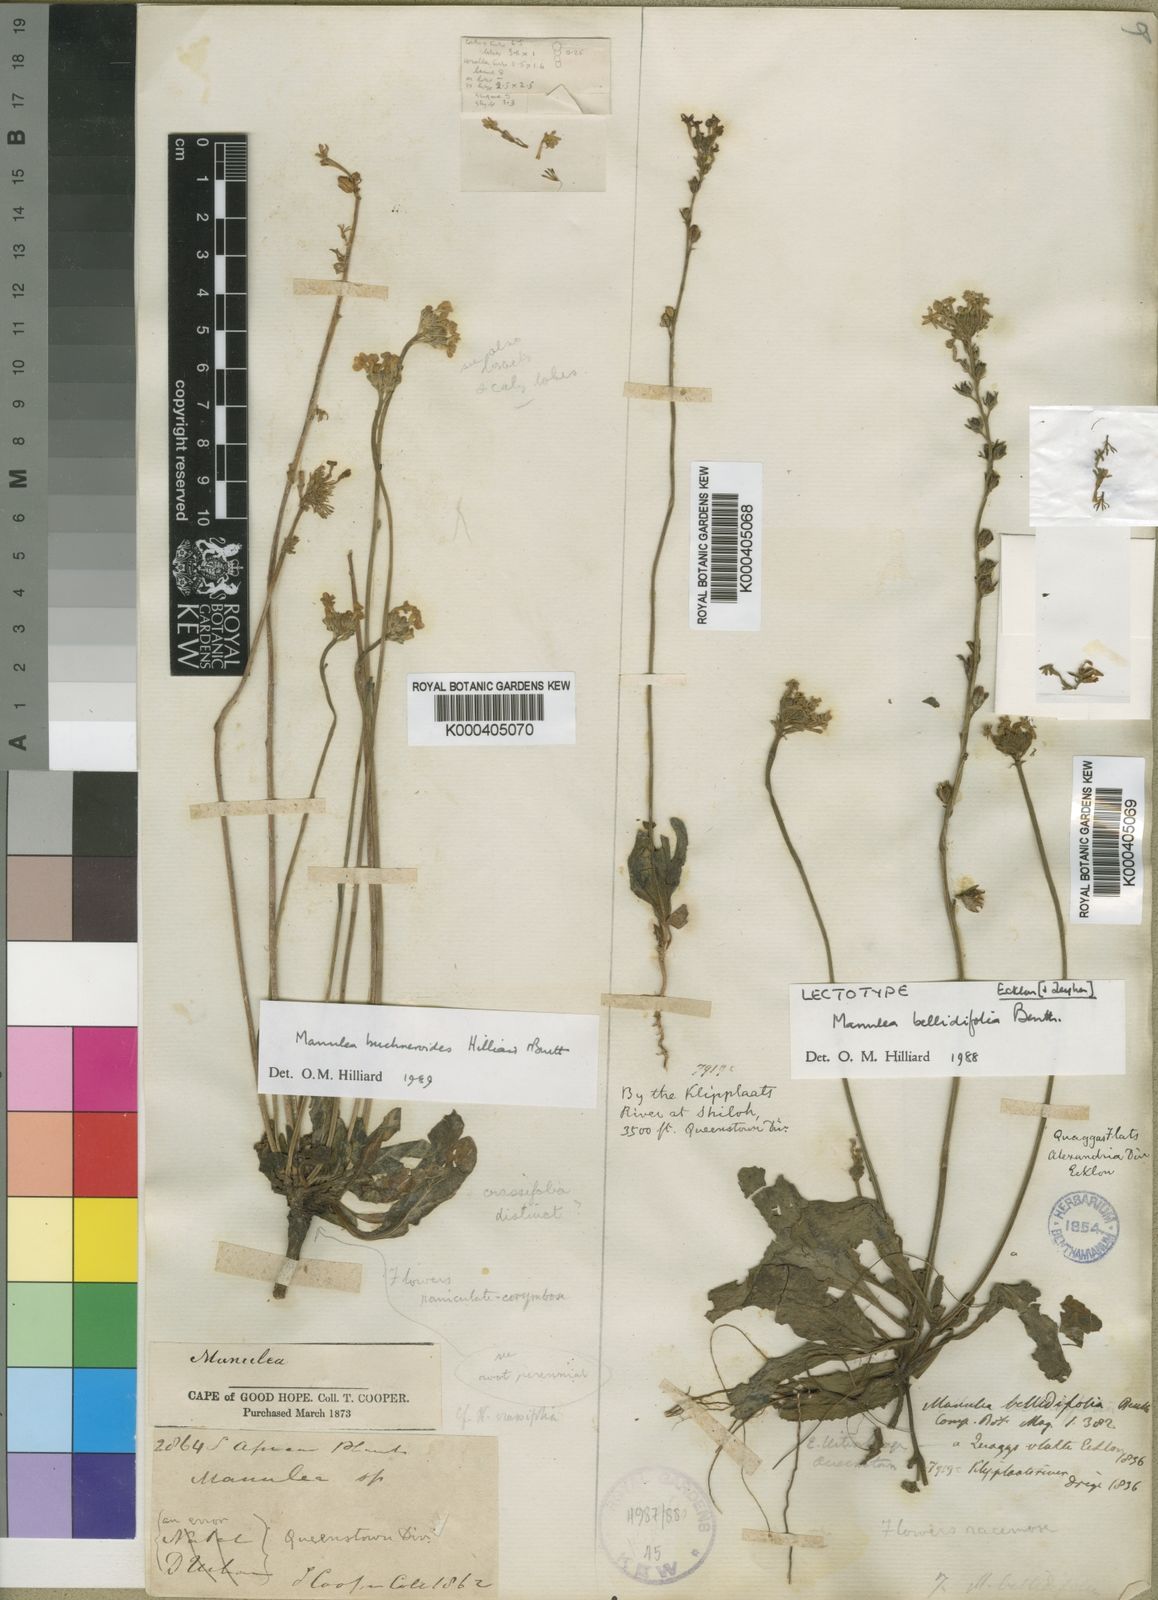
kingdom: Plantae
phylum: Tracheophyta
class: Magnoliopsida
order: Lamiales
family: Scrophulariaceae
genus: Manulea
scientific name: Manulea bellidifolia
